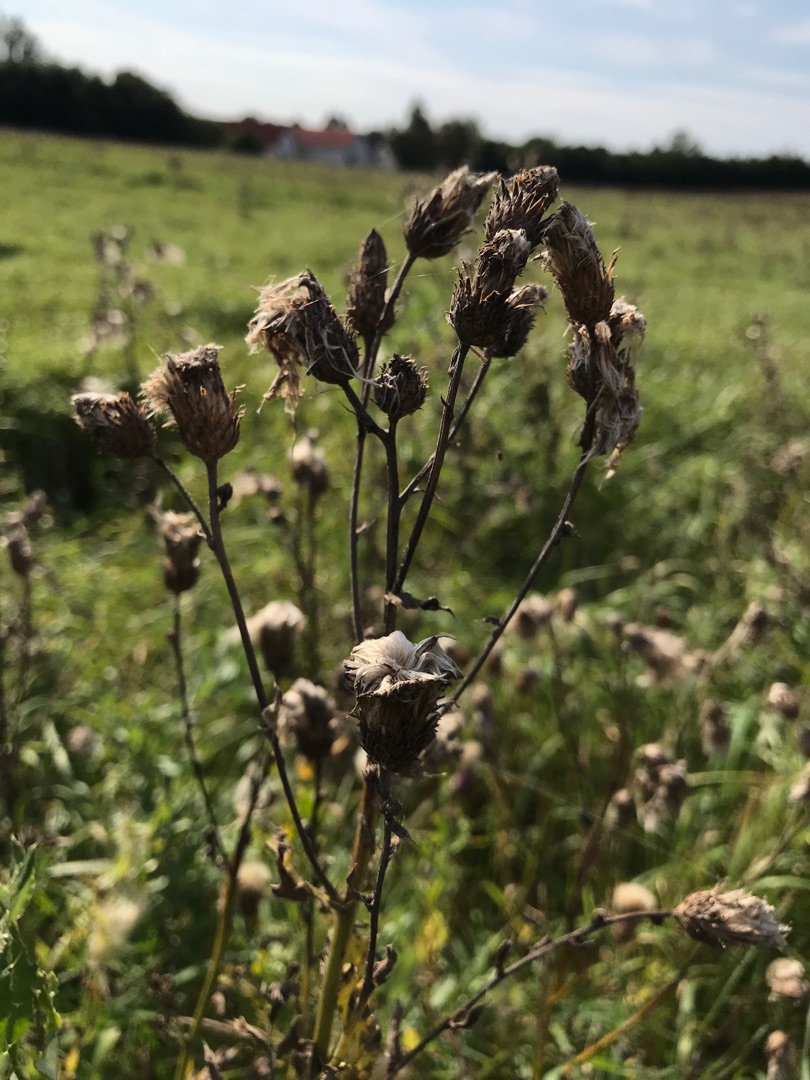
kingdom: Plantae
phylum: Tracheophyta
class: Magnoliopsida
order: Asterales
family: Asteraceae
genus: Cirsium
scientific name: Cirsium arvense
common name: Ager-tidsel
